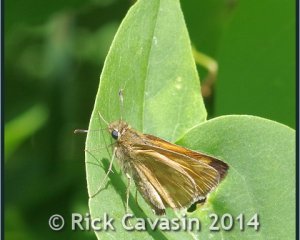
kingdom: Animalia
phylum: Arthropoda
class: Insecta
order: Lepidoptera
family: Hesperiidae
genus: Polites
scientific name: Polites
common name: Long Dash Skipper
